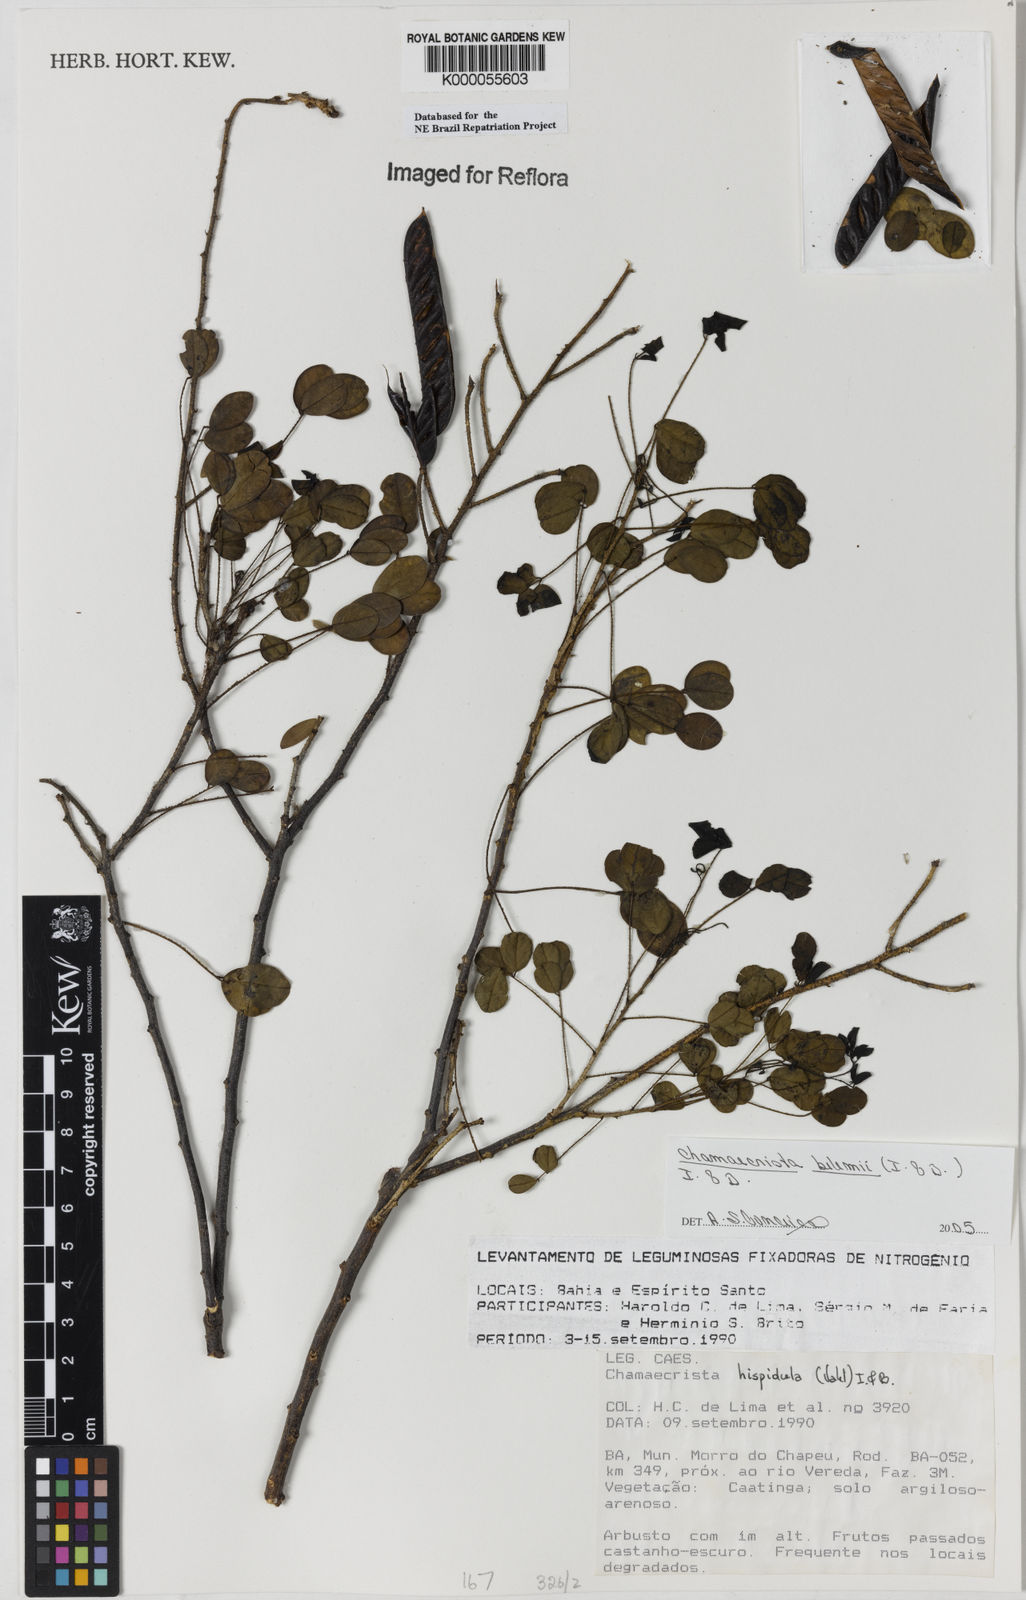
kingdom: Plantae
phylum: Tracheophyta
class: Magnoliopsida
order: Fabales
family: Fabaceae
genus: Chamaecrista
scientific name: Chamaecrista hispidula
